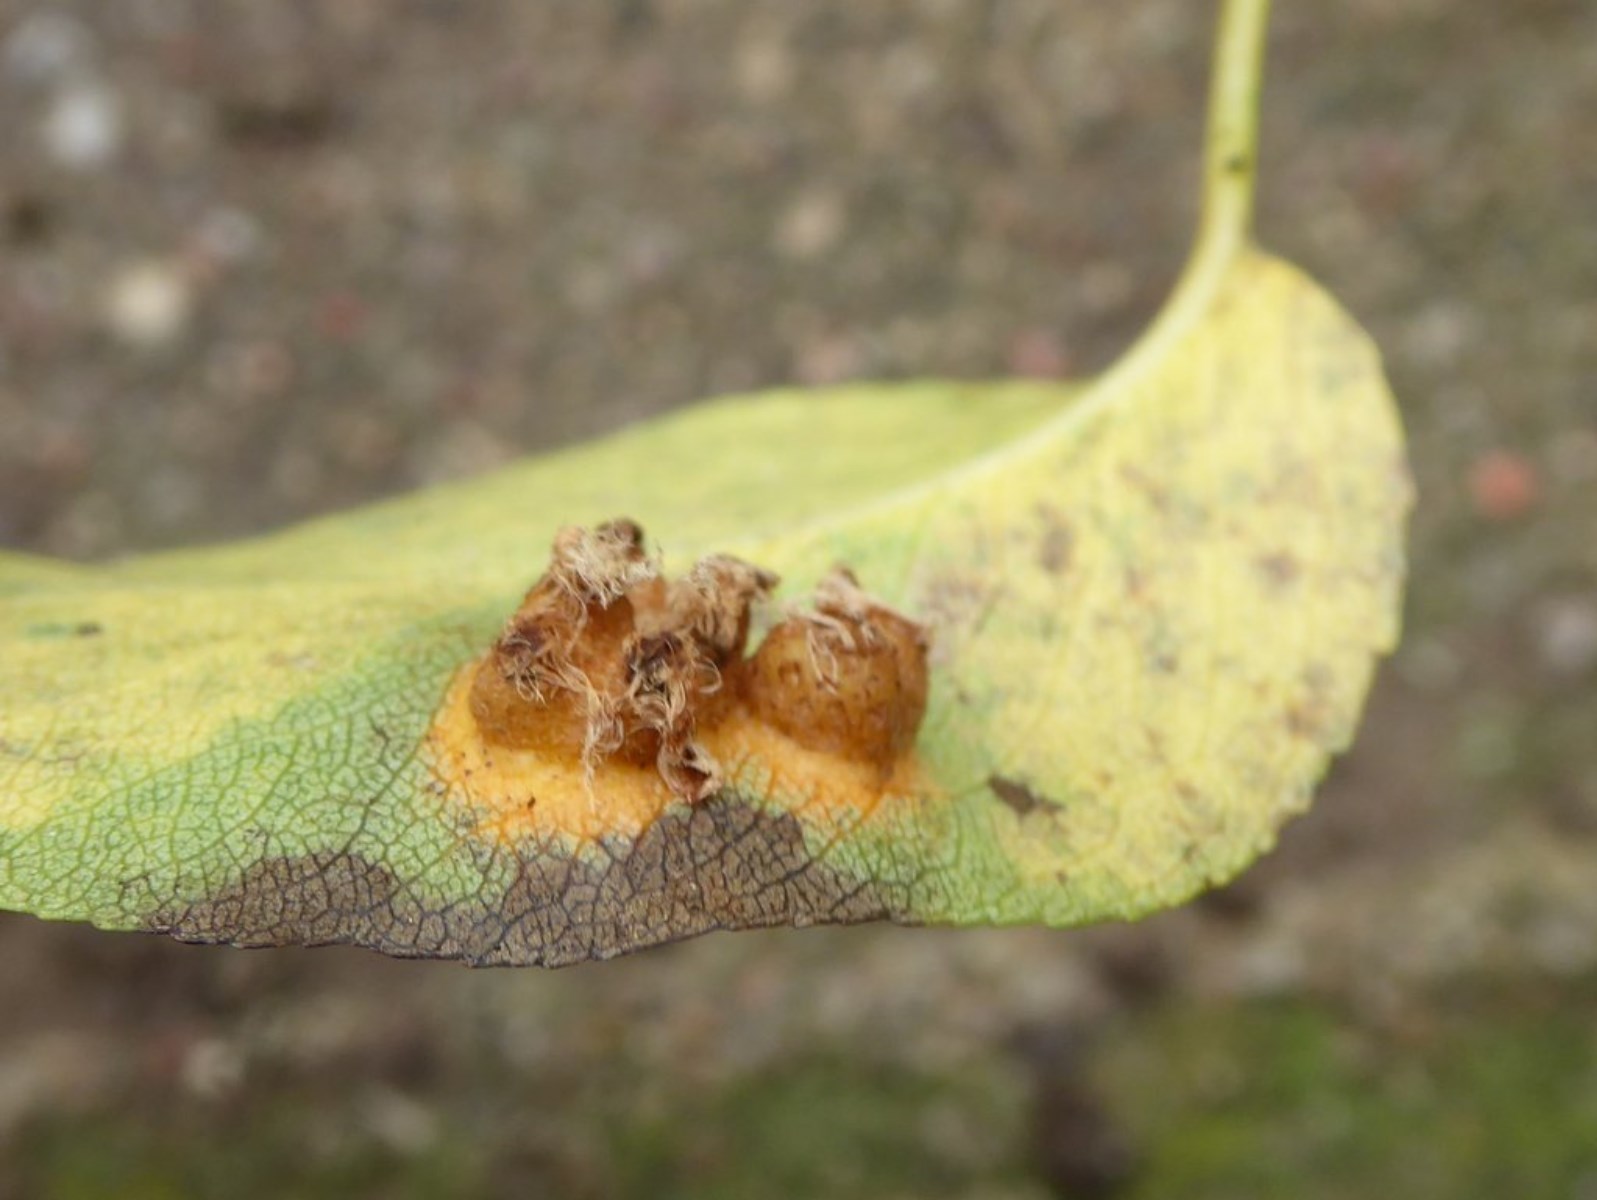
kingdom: Fungi
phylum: Basidiomycota
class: Pucciniomycetes
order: Pucciniales
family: Gymnosporangiaceae
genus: Gymnosporangium
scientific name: Gymnosporangium sabinae
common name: pæregitter-bævrerust
